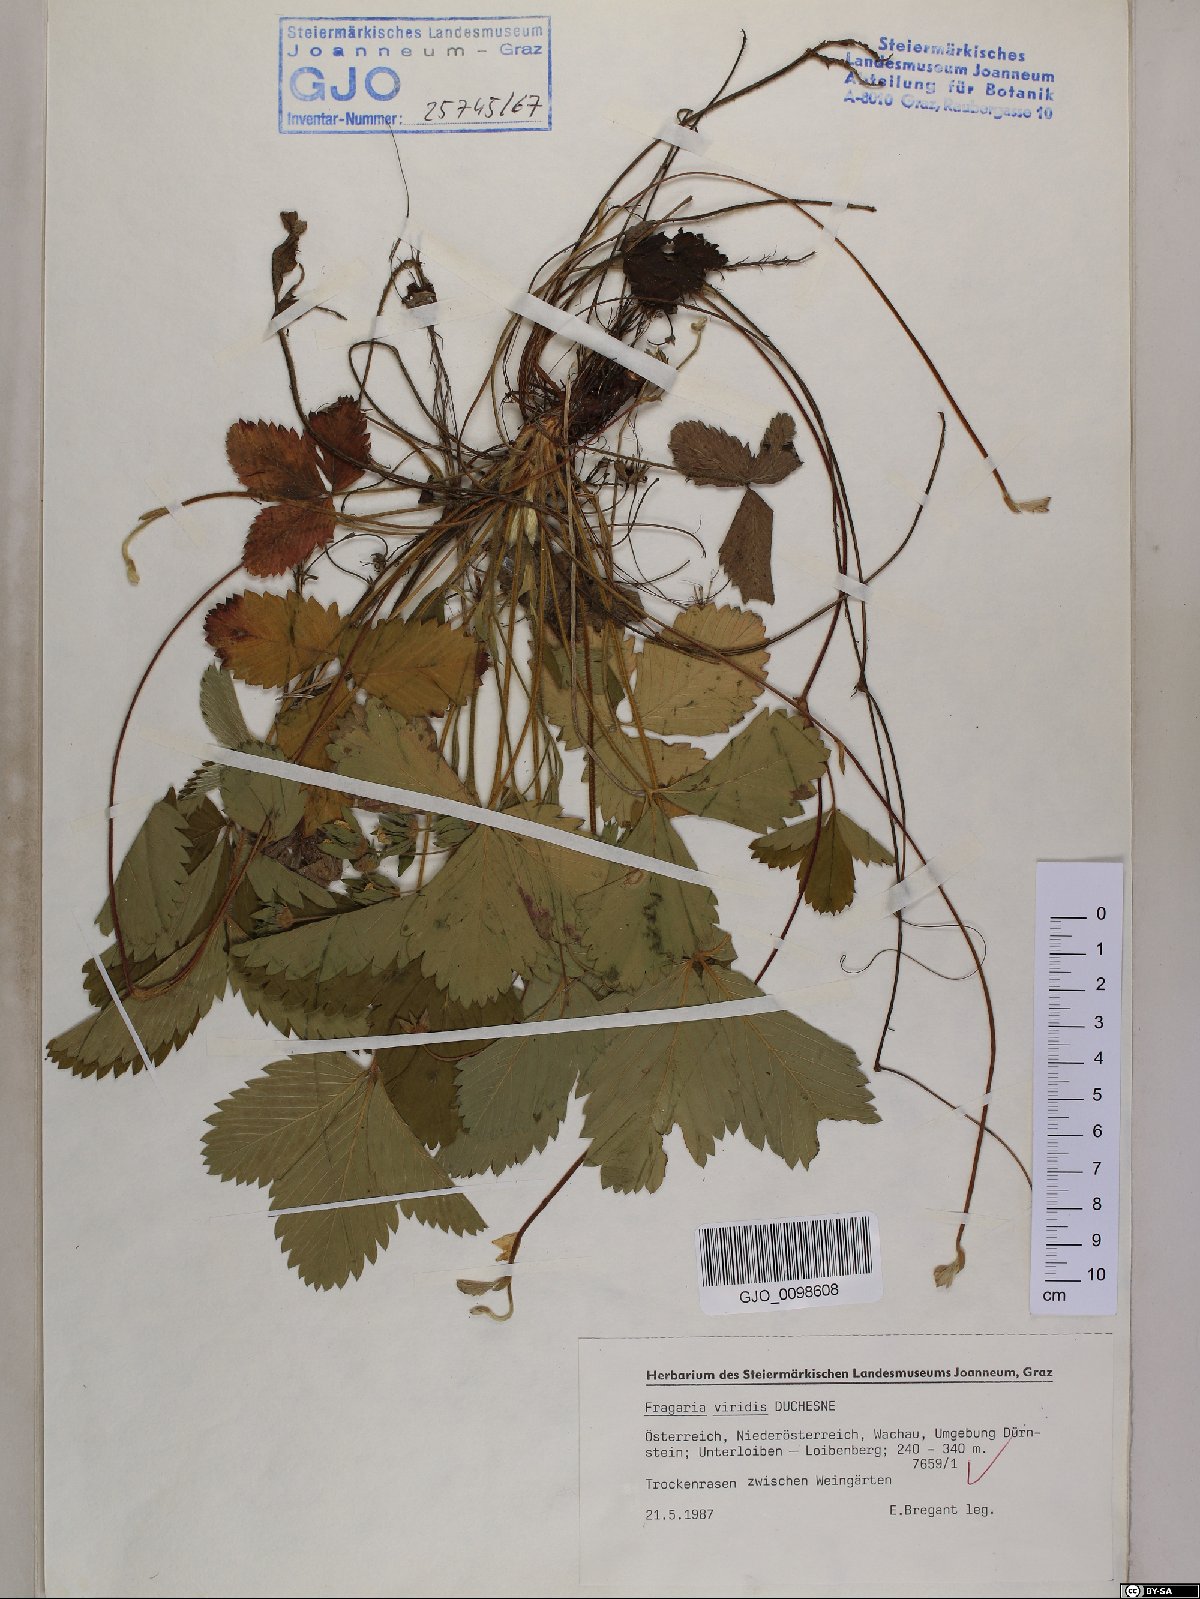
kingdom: Plantae
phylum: Tracheophyta
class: Magnoliopsida
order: Rosales
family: Rosaceae
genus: Fragaria
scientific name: Fragaria viridis
